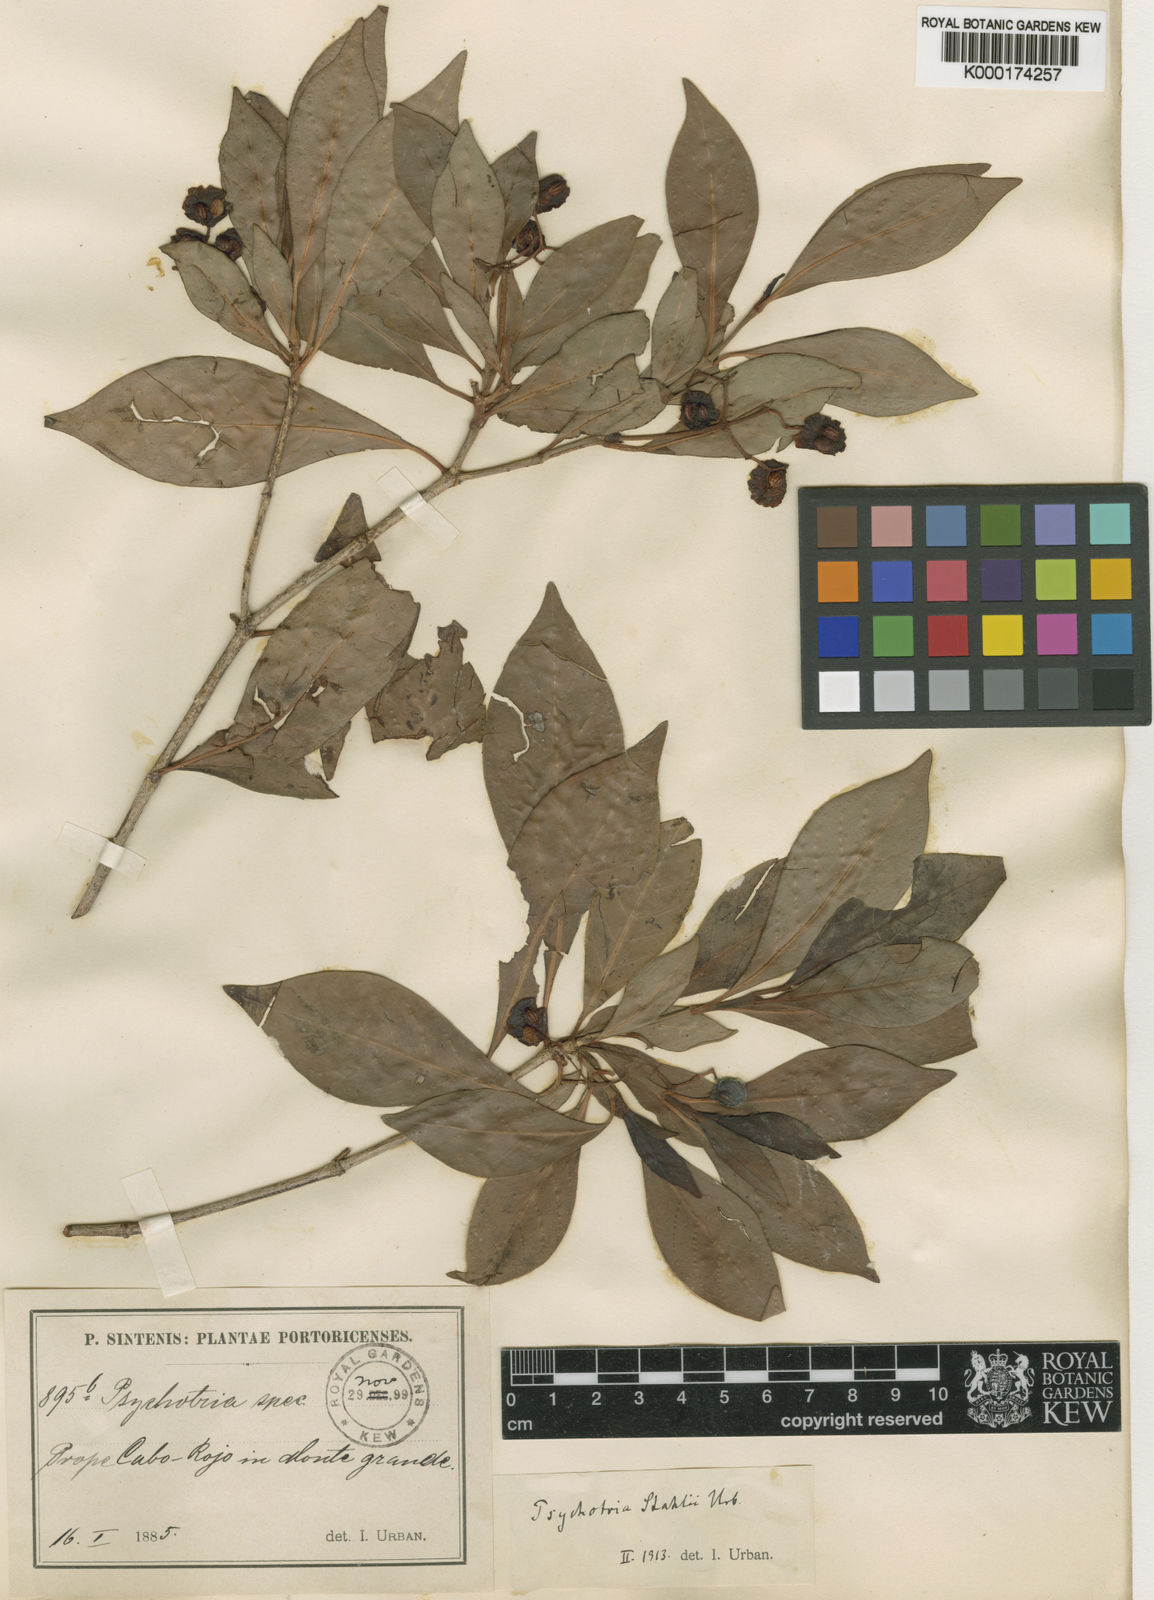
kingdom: Plantae
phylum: Tracheophyta
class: Magnoliopsida
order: Gentianales
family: Rubiaceae
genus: Psychotria
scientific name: Psychotria ligustrifolia
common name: Bahama wild coffee
